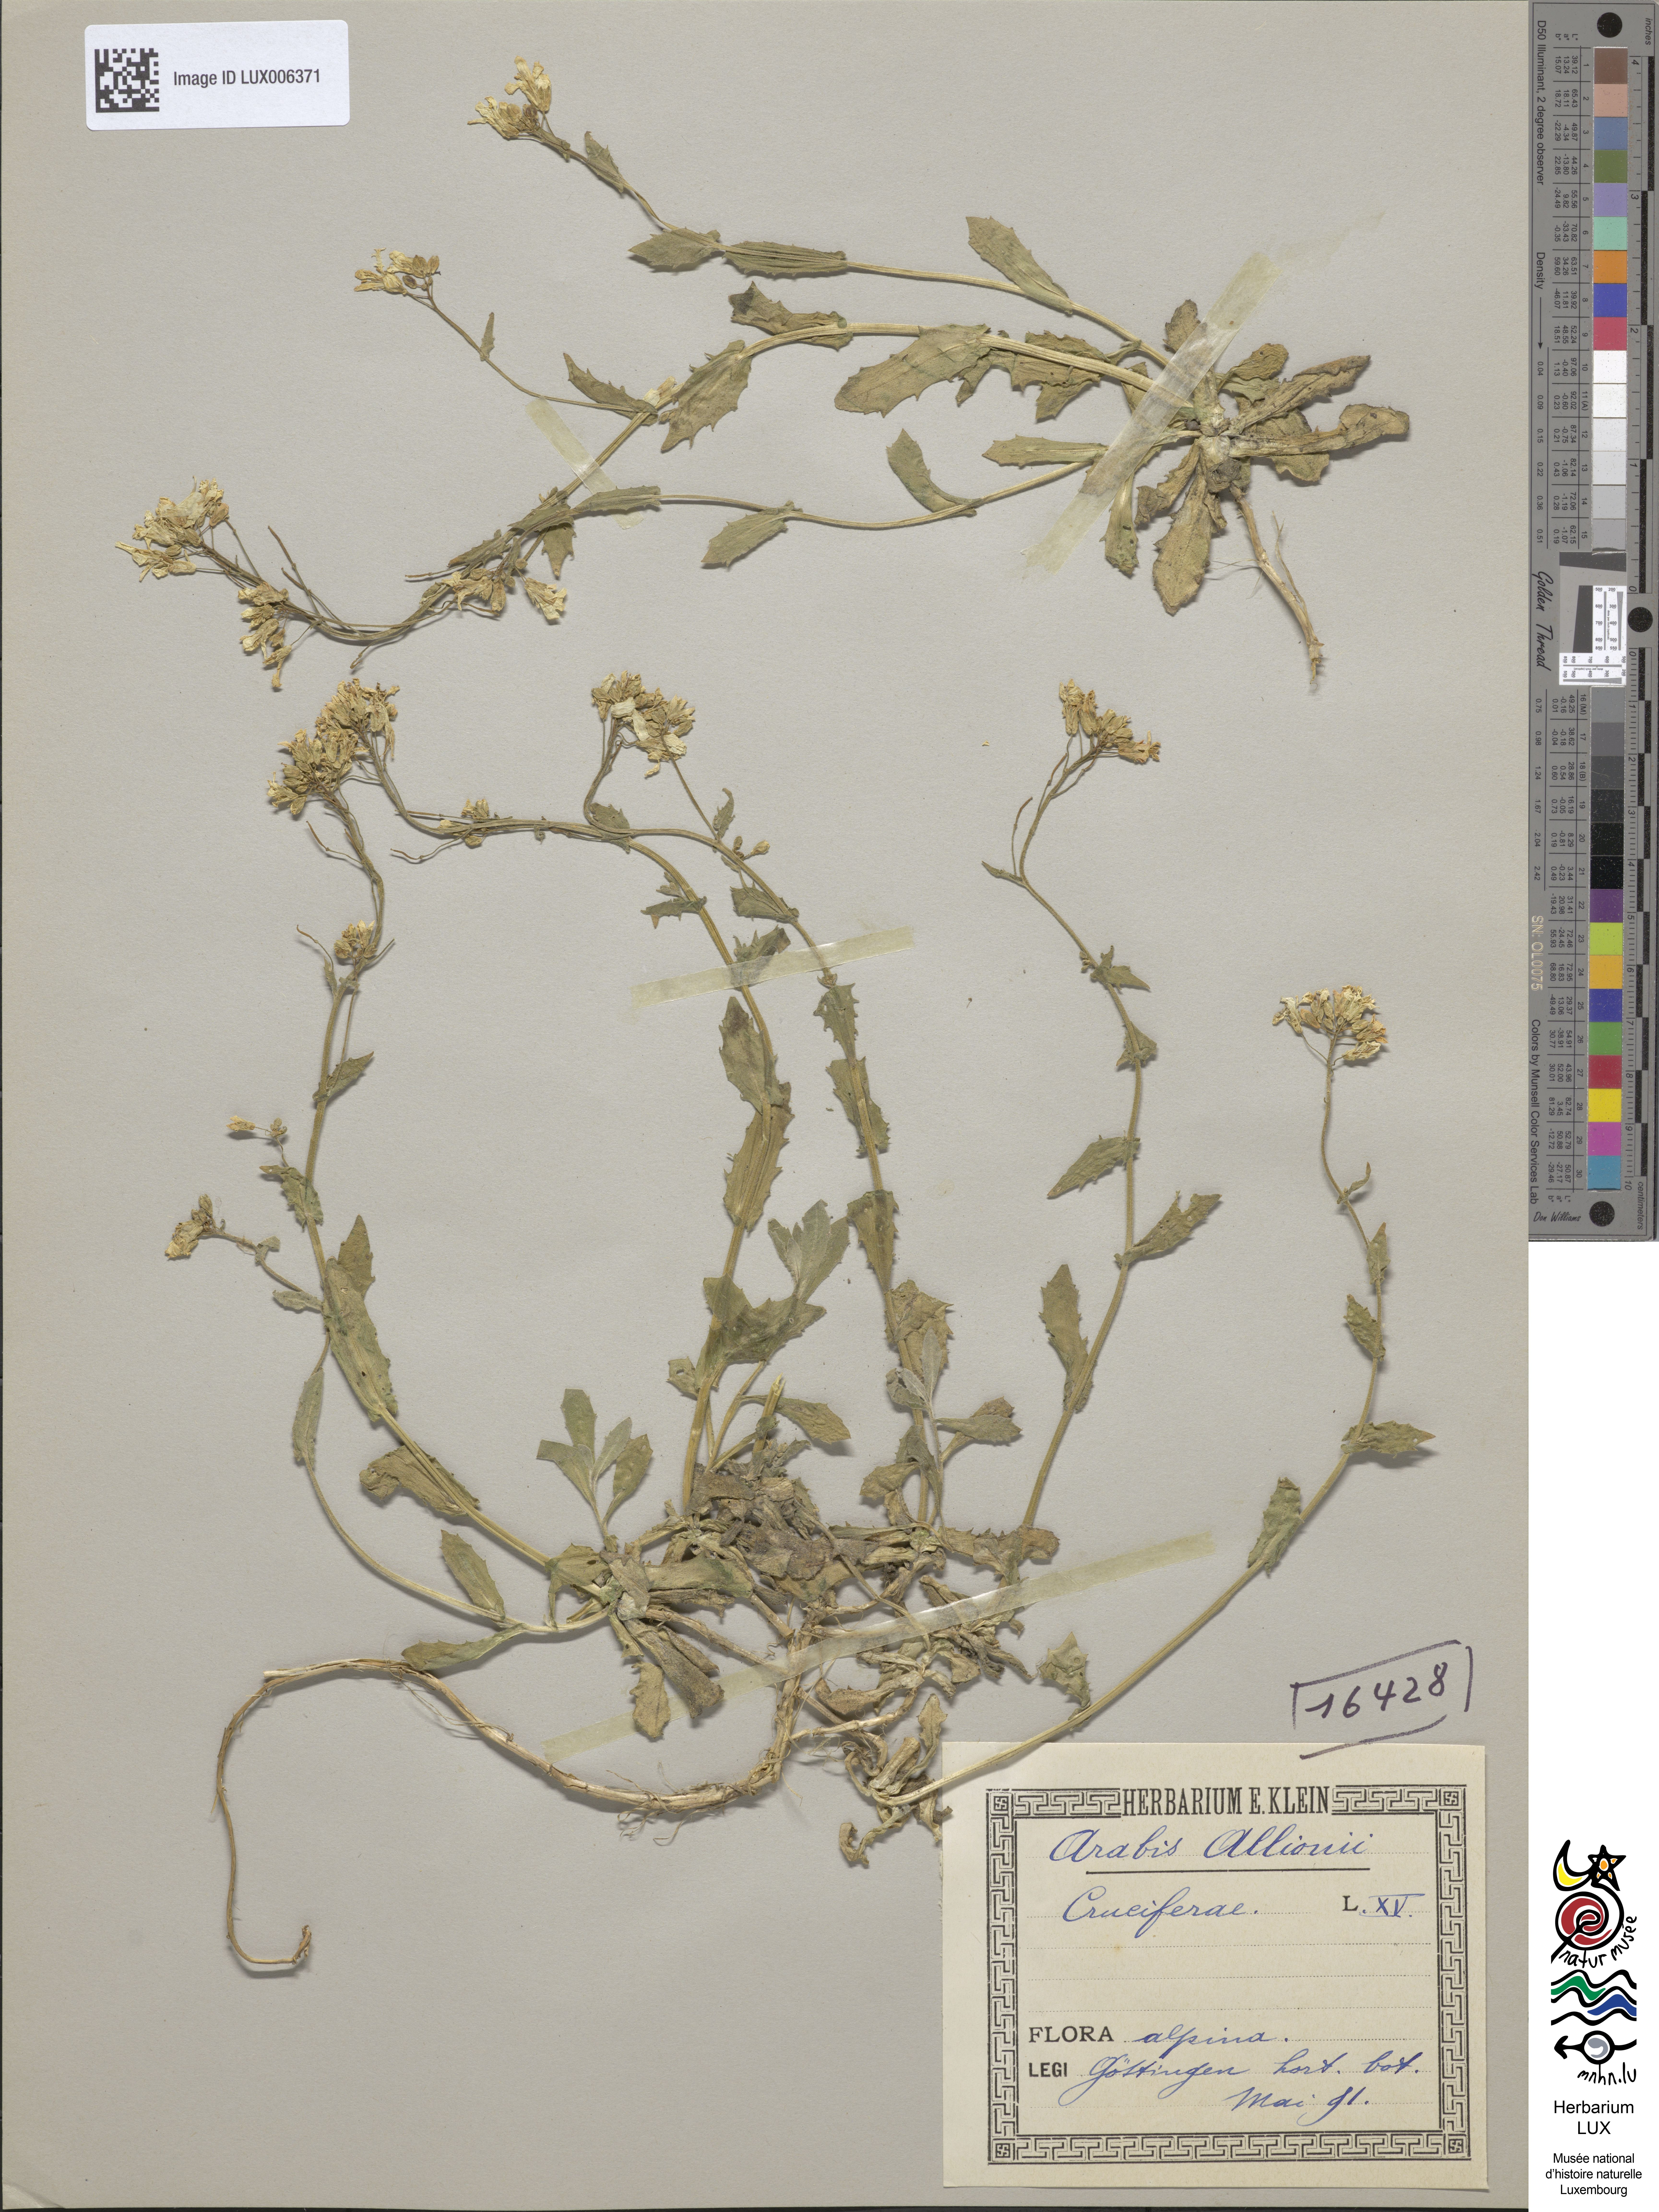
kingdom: Plantae
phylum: Tracheophyta
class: Magnoliopsida
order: Brassicales
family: Brassicaceae
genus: Arabis
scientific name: Arabis allionii
